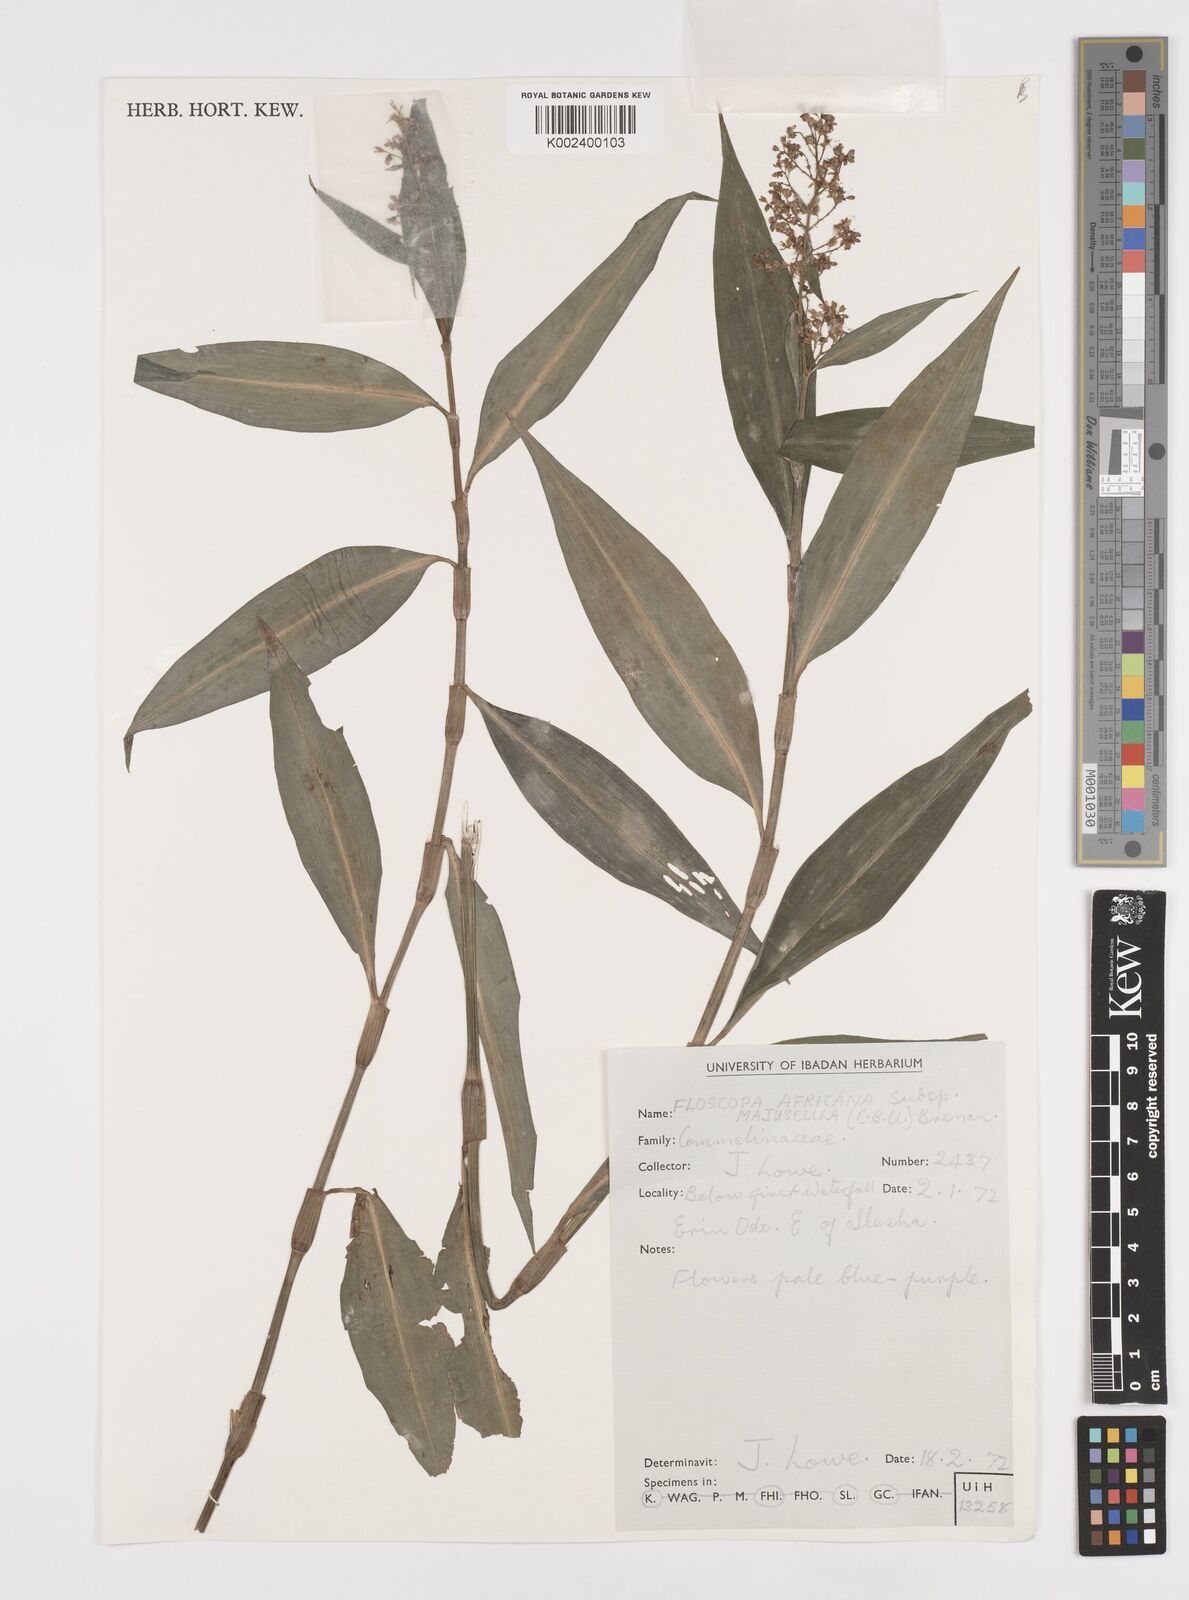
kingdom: Plantae
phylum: Tracheophyta
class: Liliopsida
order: Commelinales
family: Commelinaceae
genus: Floscopa
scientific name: Floscopa africana
